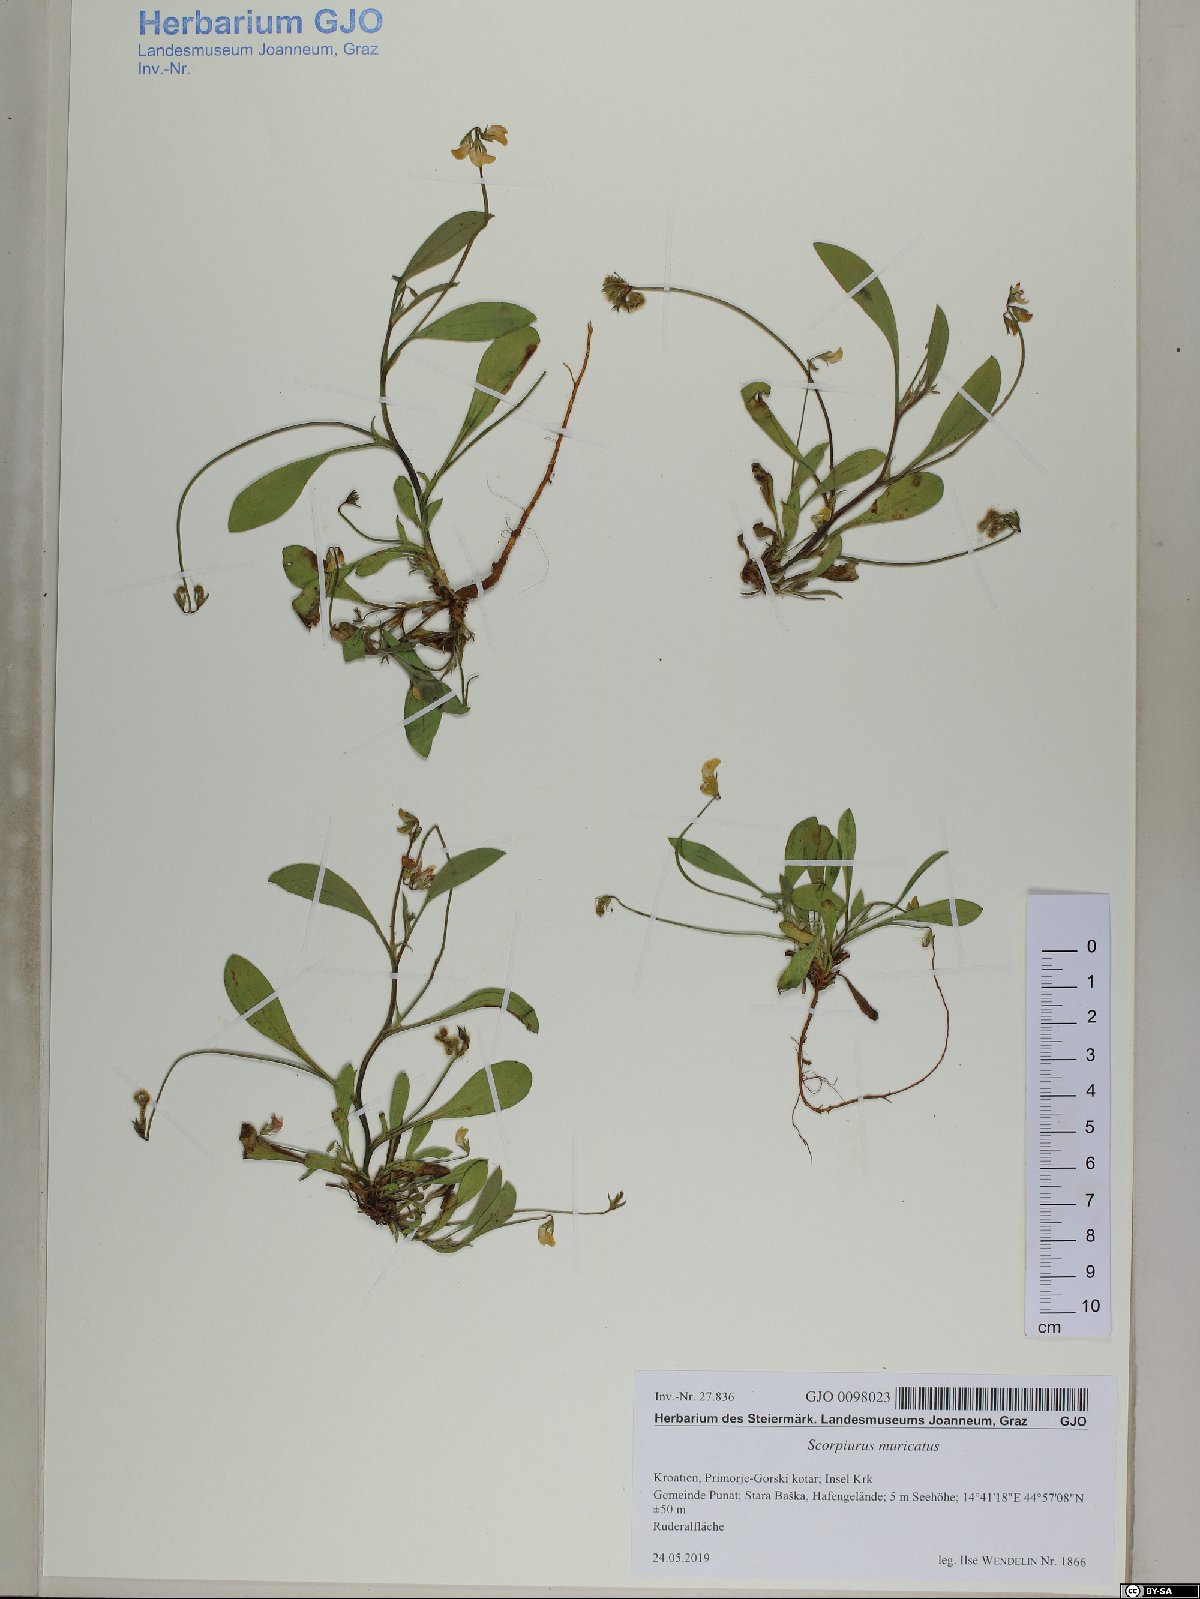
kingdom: Plantae
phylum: Tracheophyta
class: Magnoliopsida
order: Fabales
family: Fabaceae
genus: Scorpiurus
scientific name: Scorpiurus muricatus
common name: Caterpillar-plant
